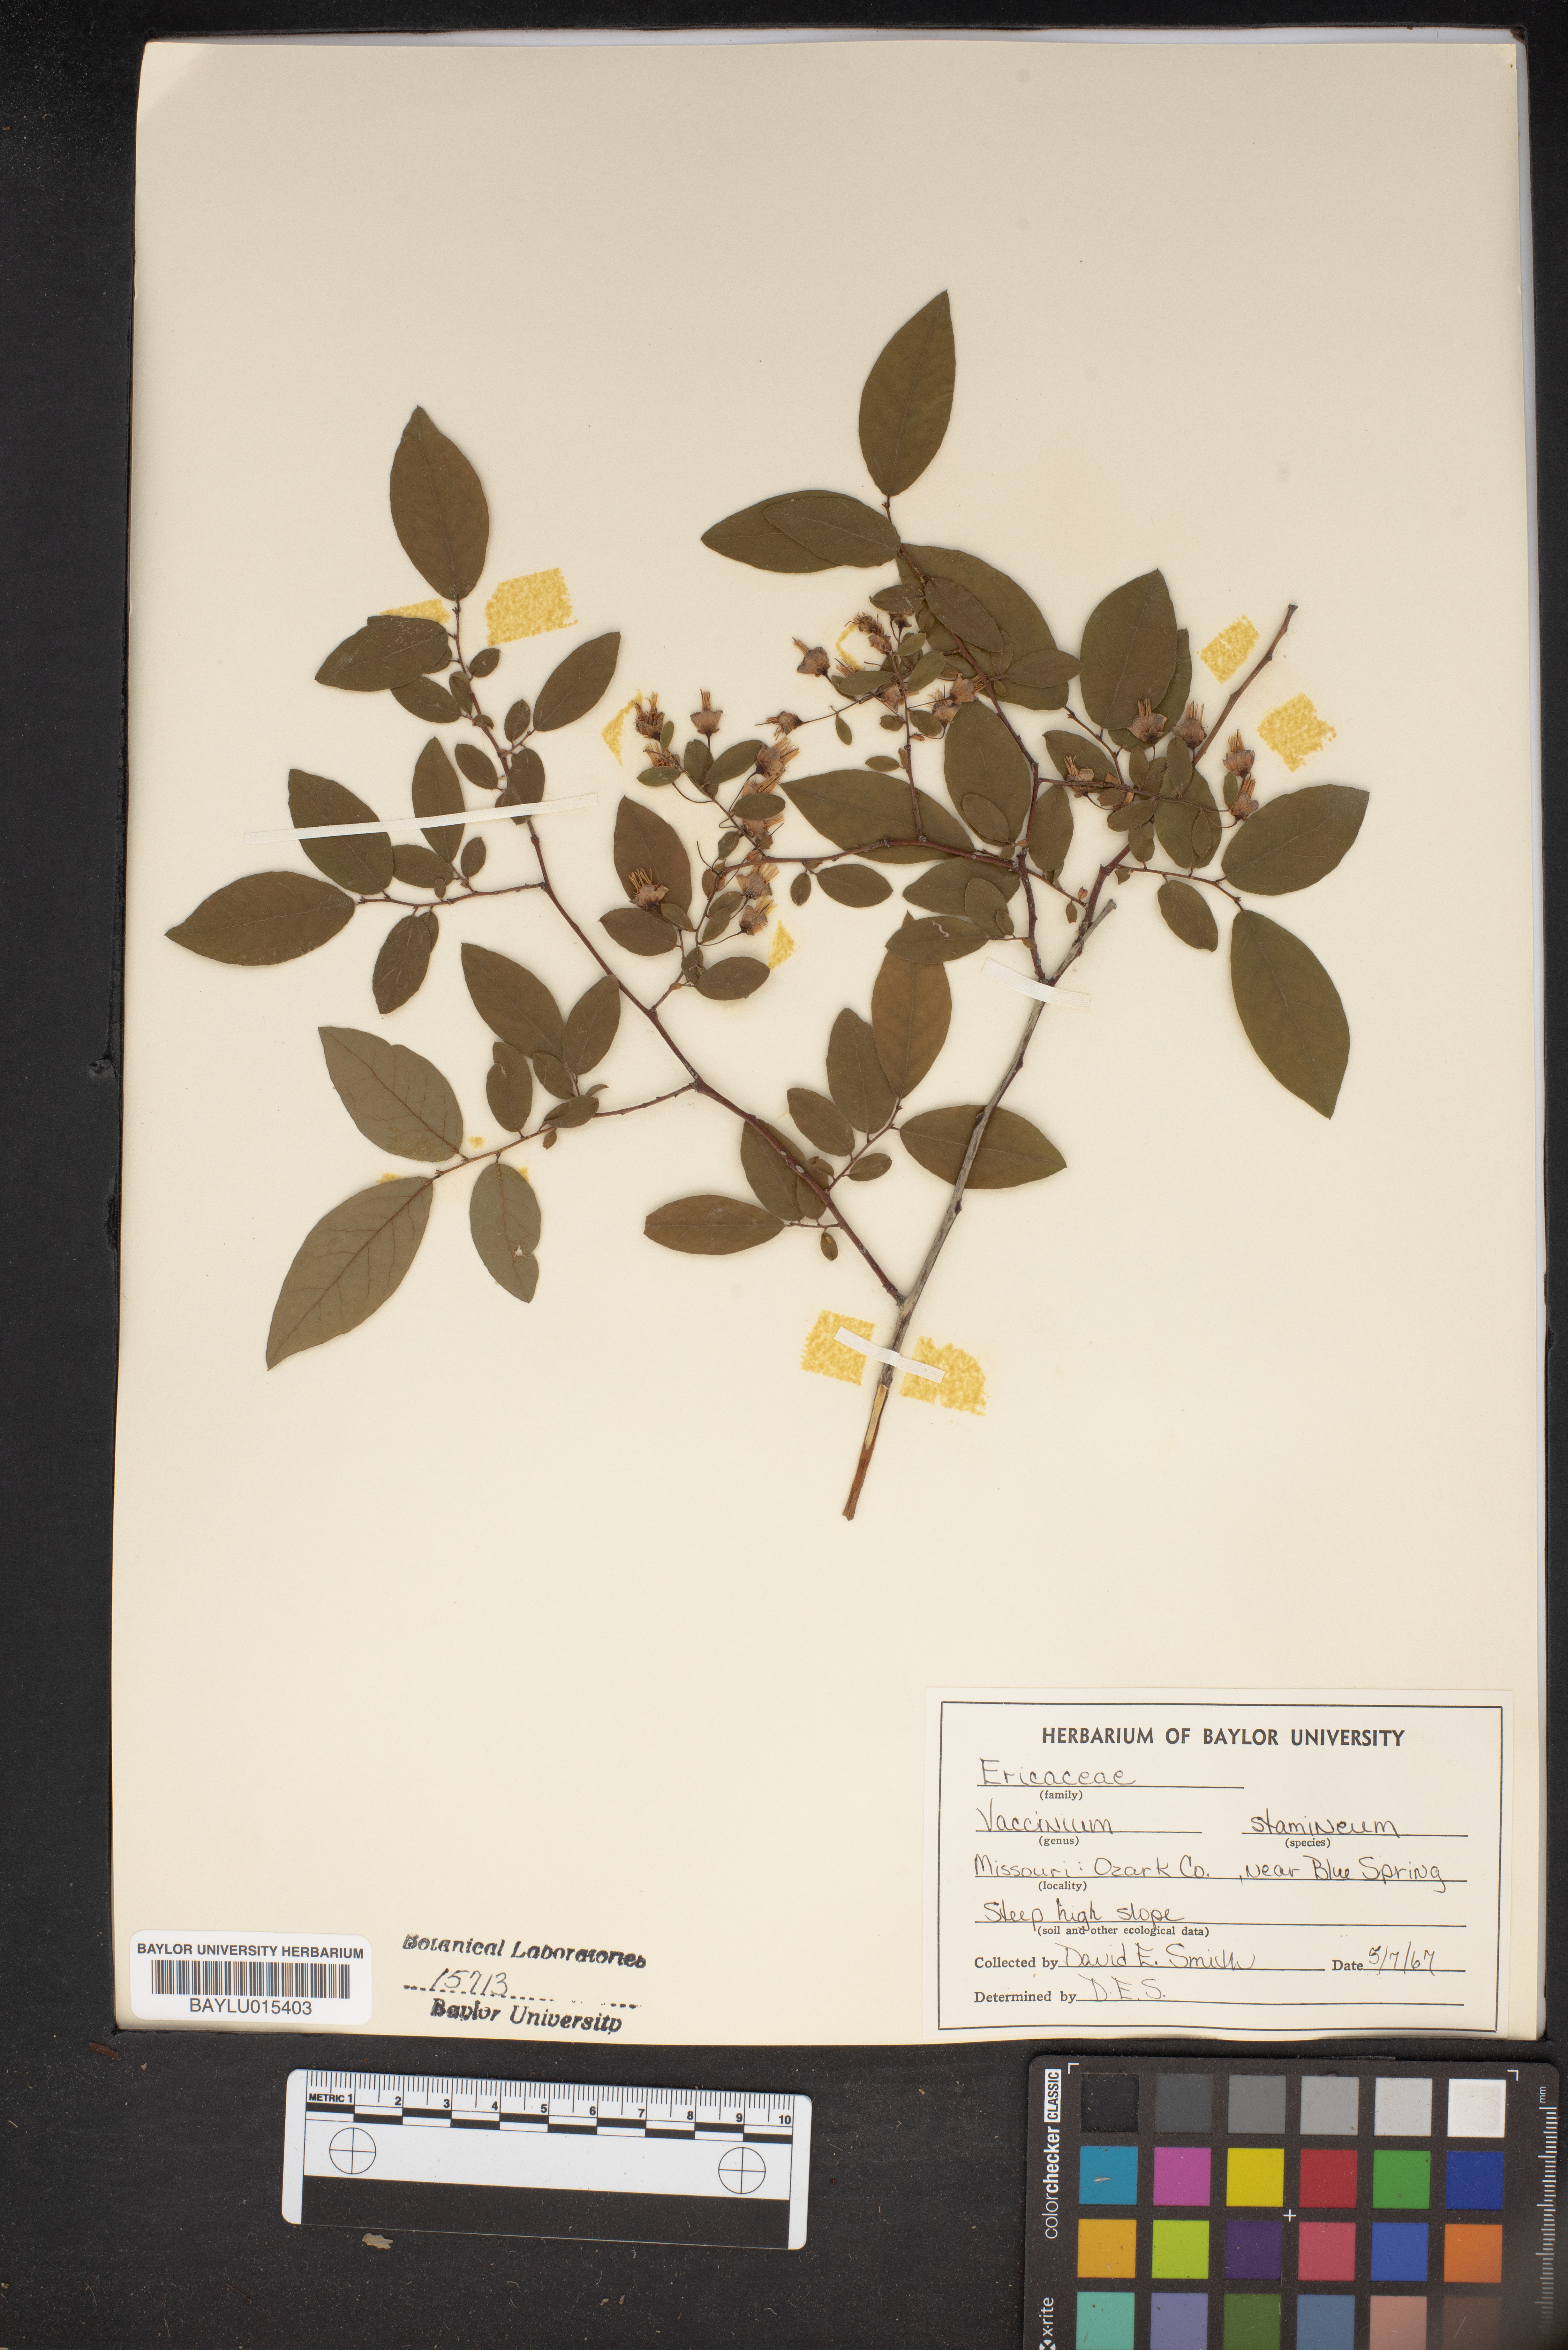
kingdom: Plantae
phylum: Tracheophyta
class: Magnoliopsida
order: Ericales
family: Ericaceae
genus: Vaccinium
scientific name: Vaccinium stamineum
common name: Deerberry
